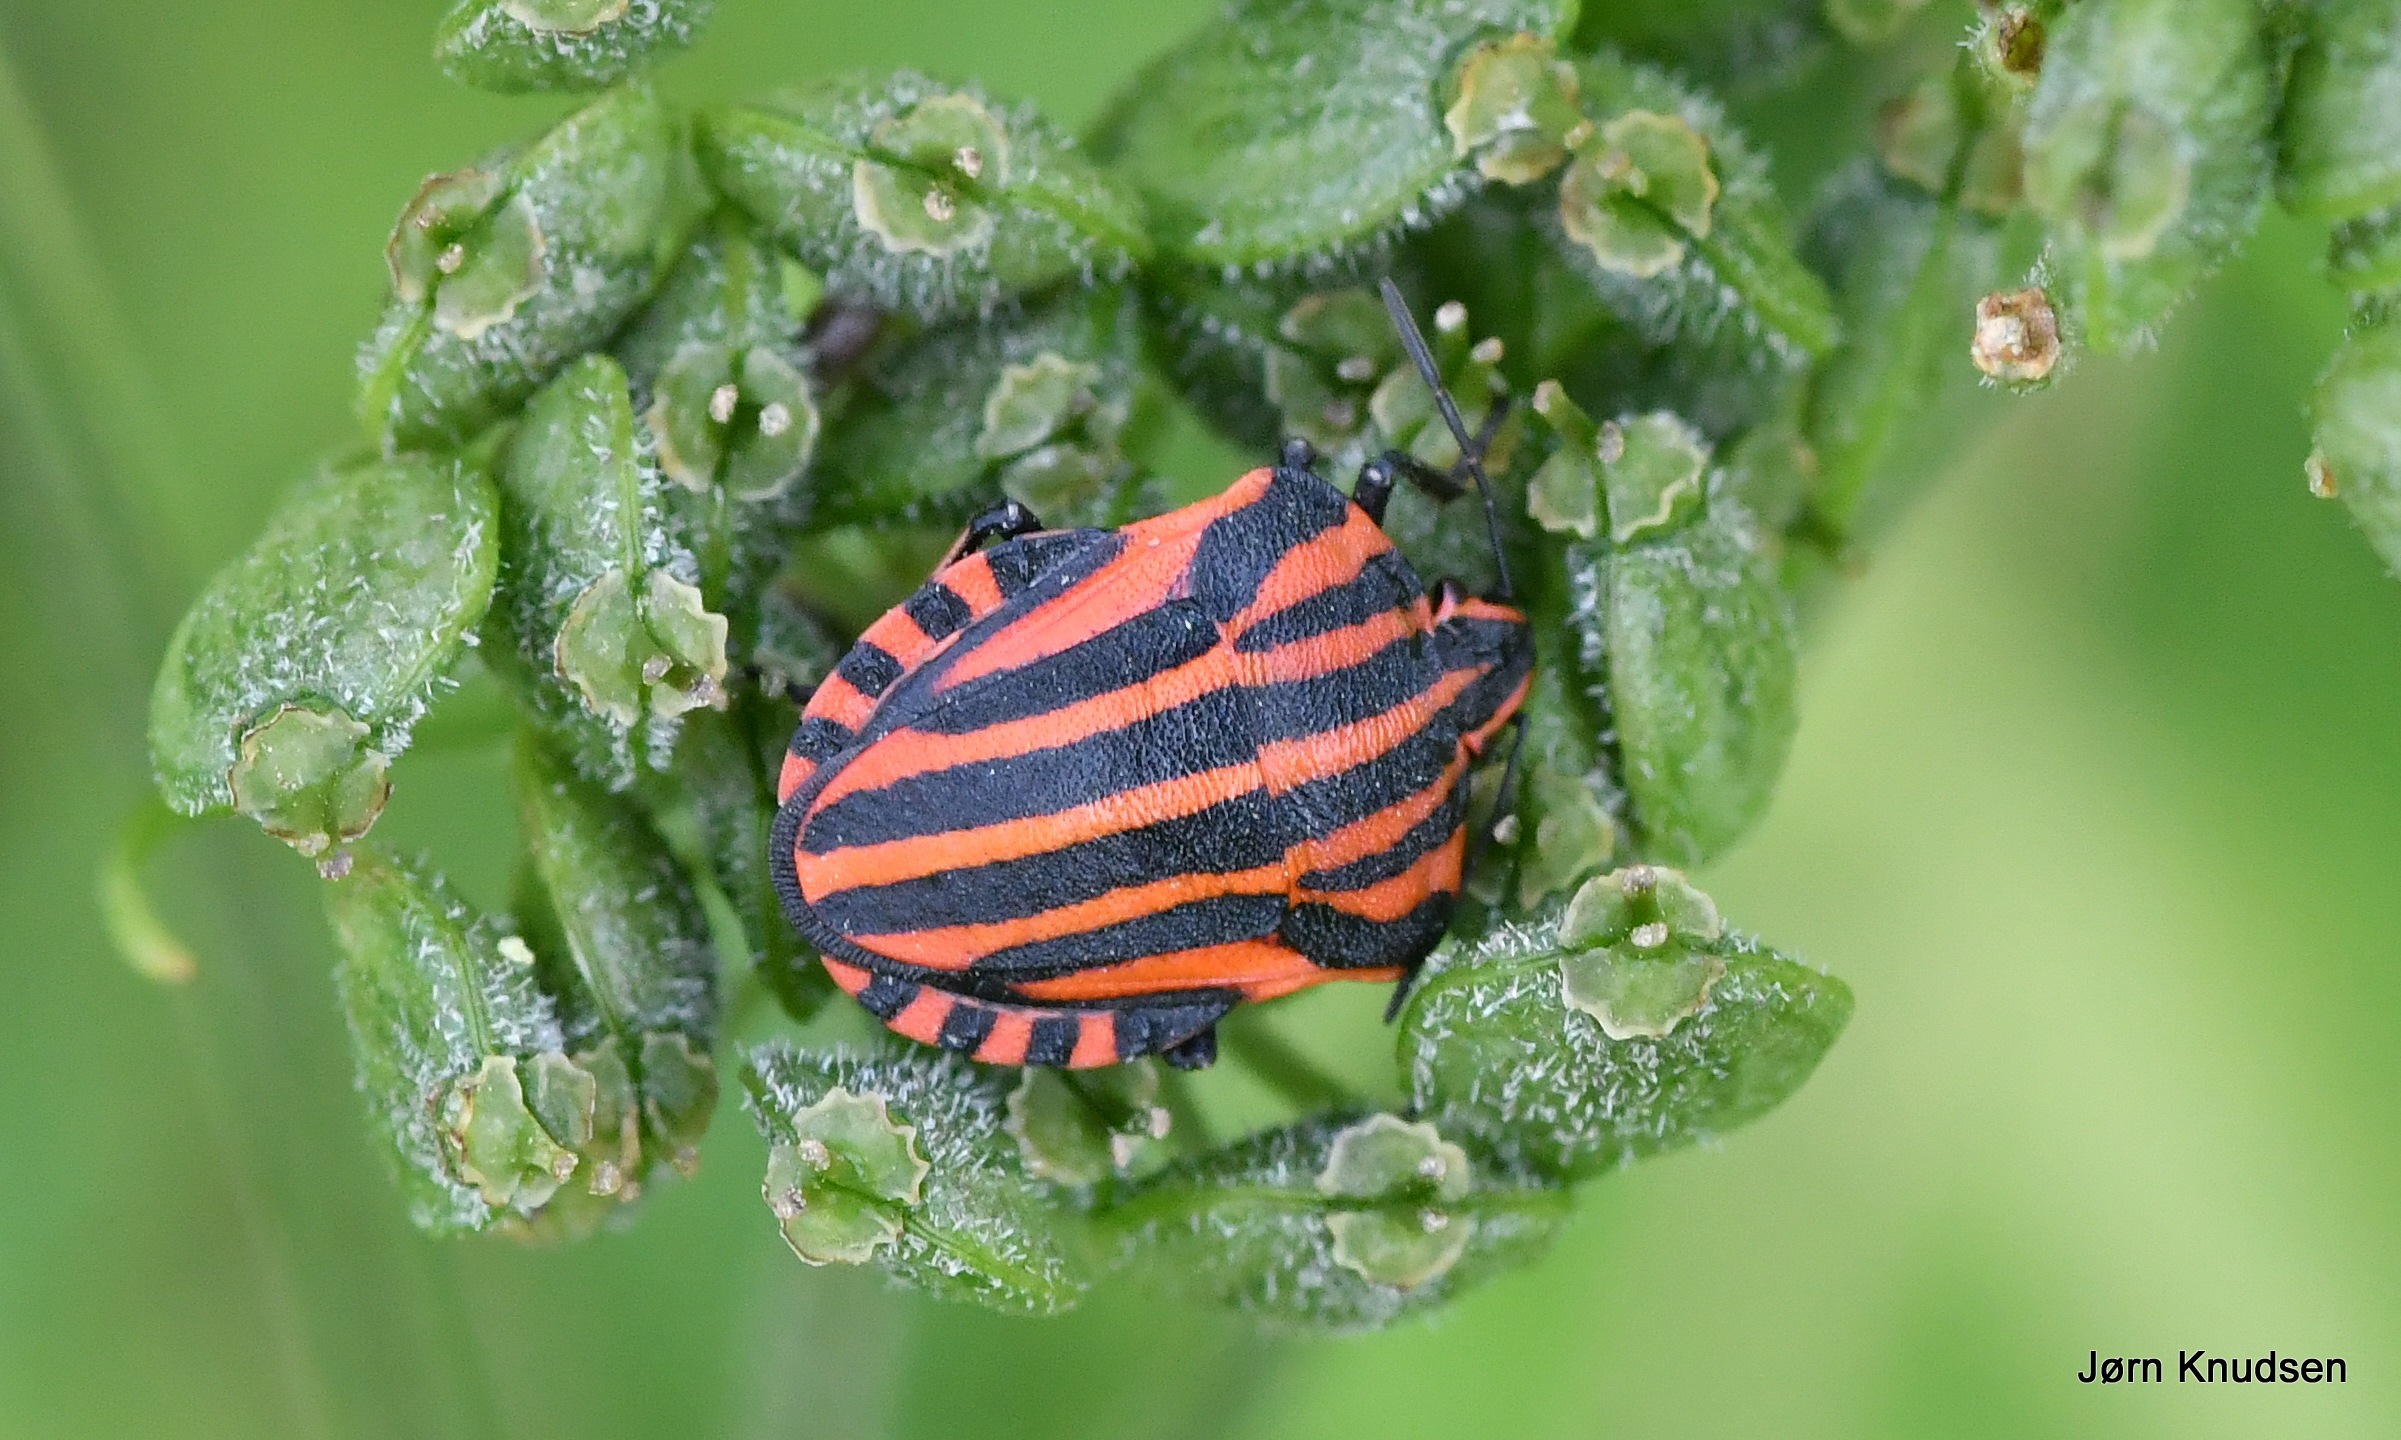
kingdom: Animalia
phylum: Arthropoda
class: Insecta
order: Hemiptera
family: Pentatomidae
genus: Graphosoma
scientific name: Graphosoma italicum
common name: Stribetæge
